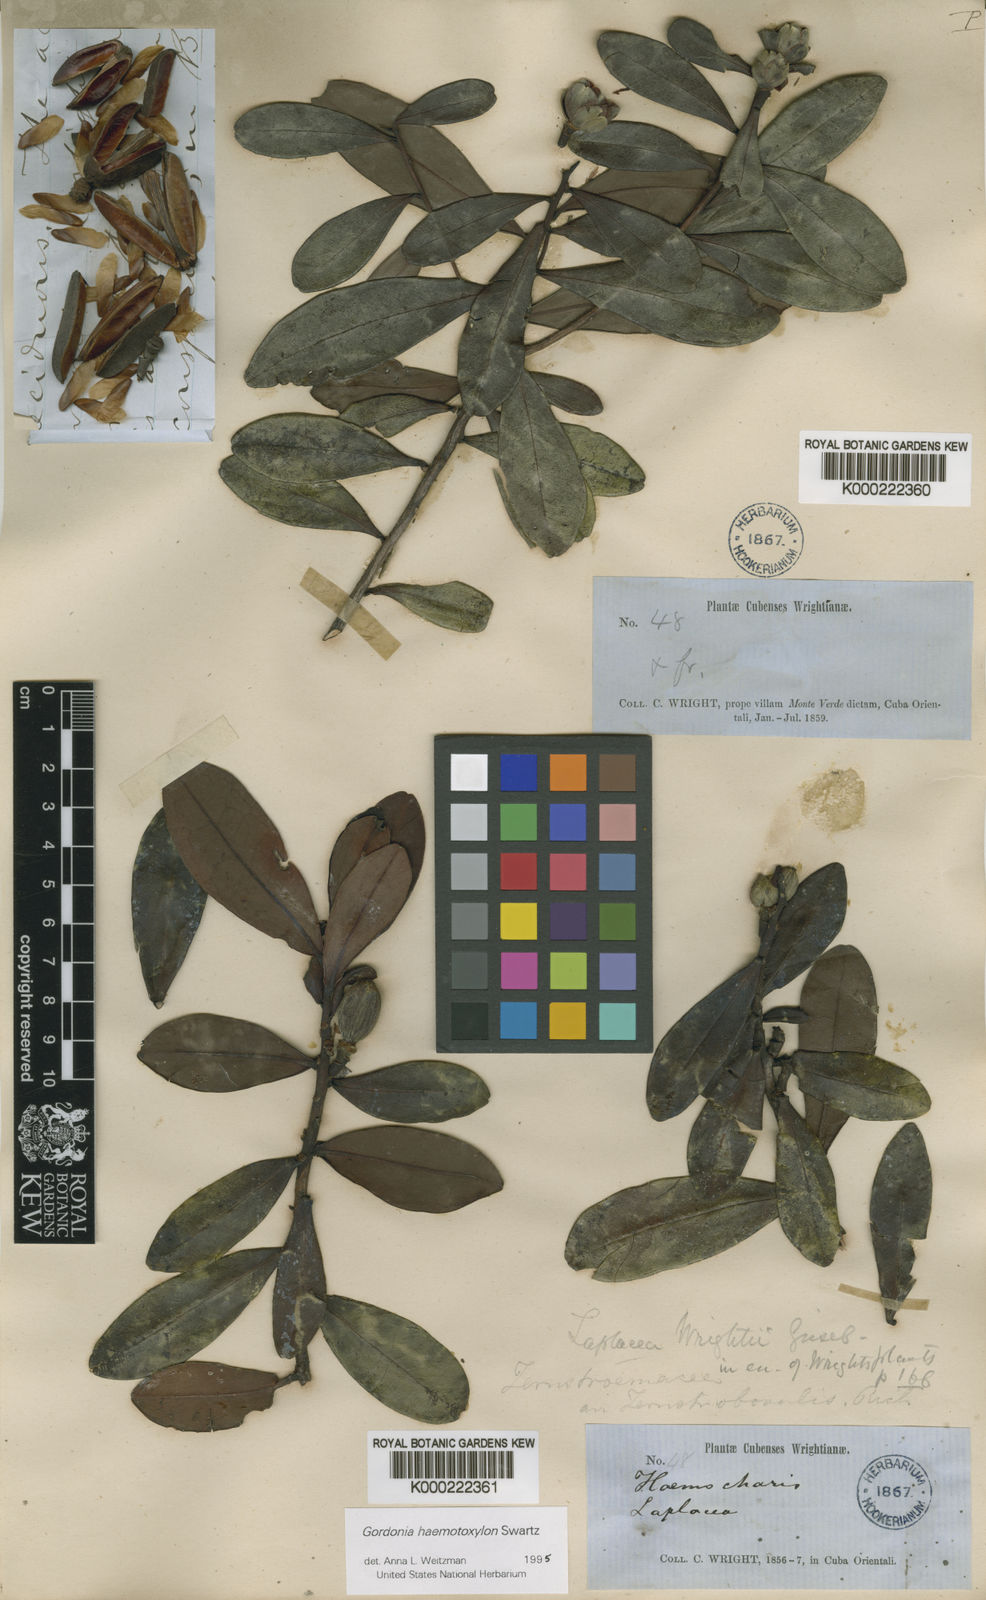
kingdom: Plantae
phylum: Tracheophyta
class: Magnoliopsida
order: Ericales
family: Theaceae
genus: Gordonia
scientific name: Gordonia wrightii
